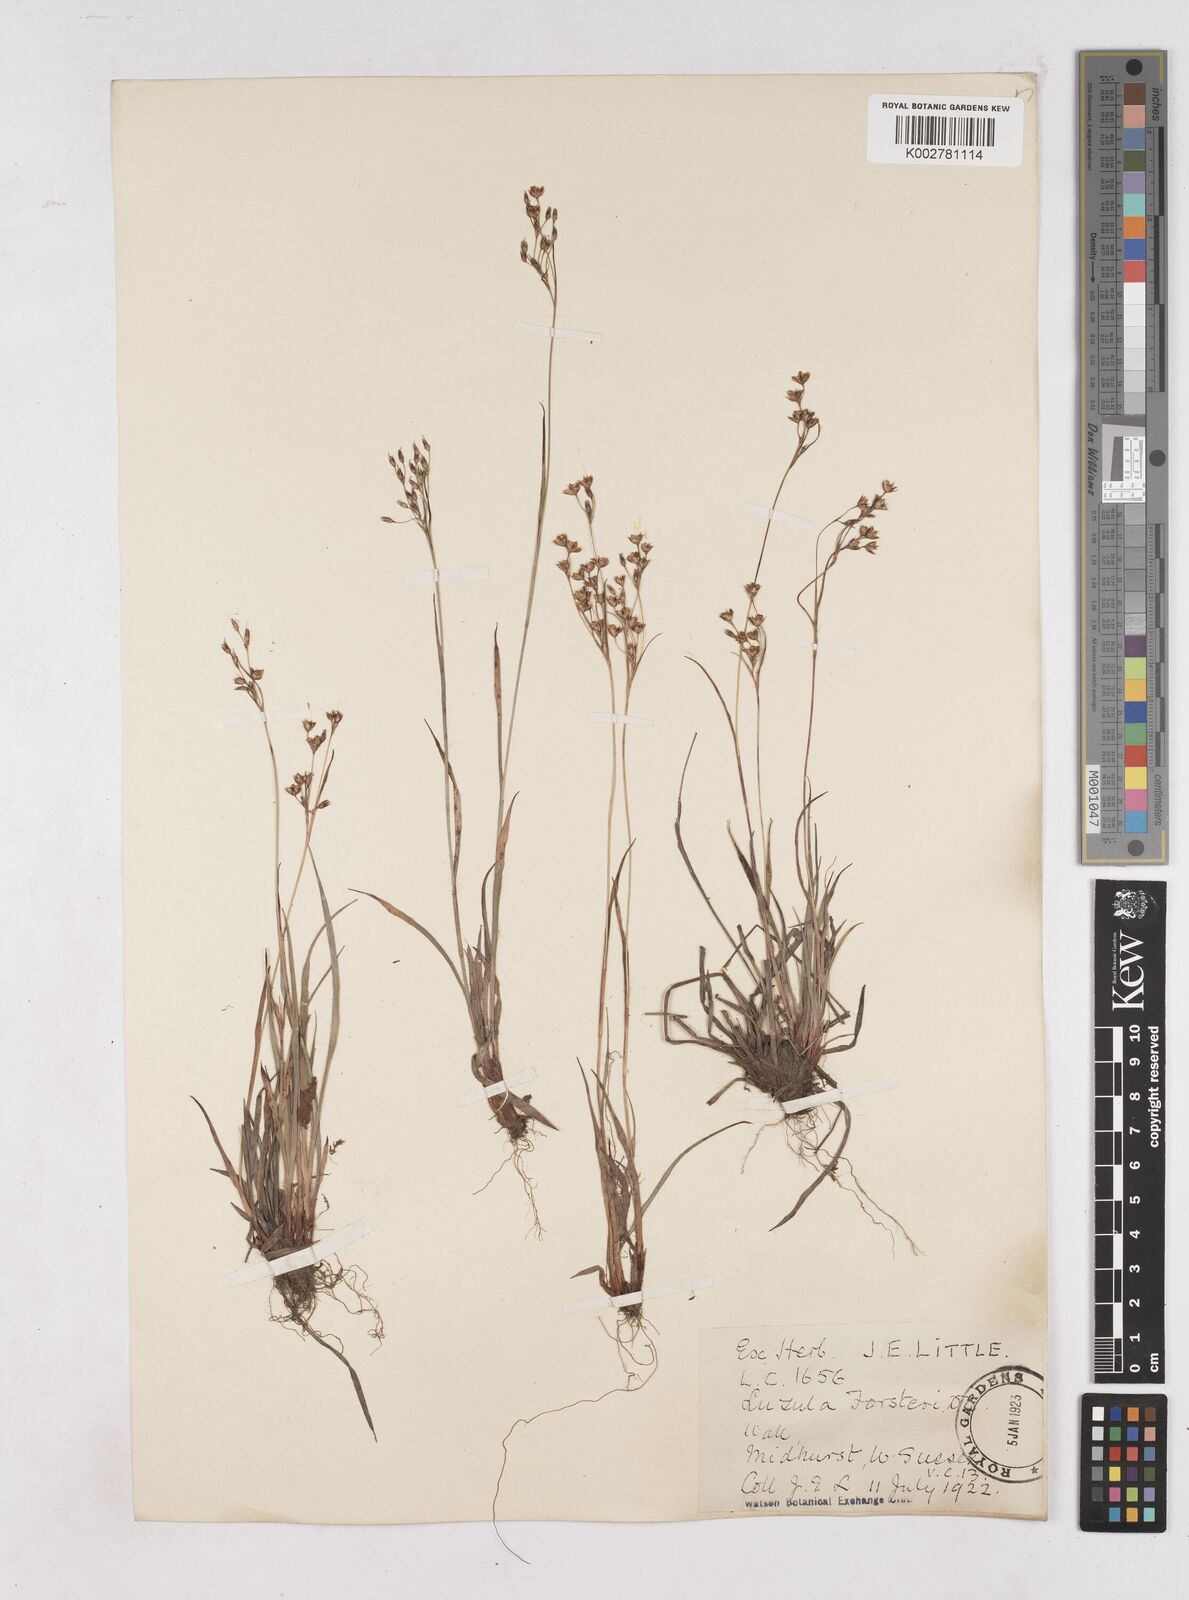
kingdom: Plantae
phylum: Tracheophyta
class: Liliopsida
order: Poales
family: Juncaceae
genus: Luzula
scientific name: Luzula forsteri
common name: Southern wood-rush
